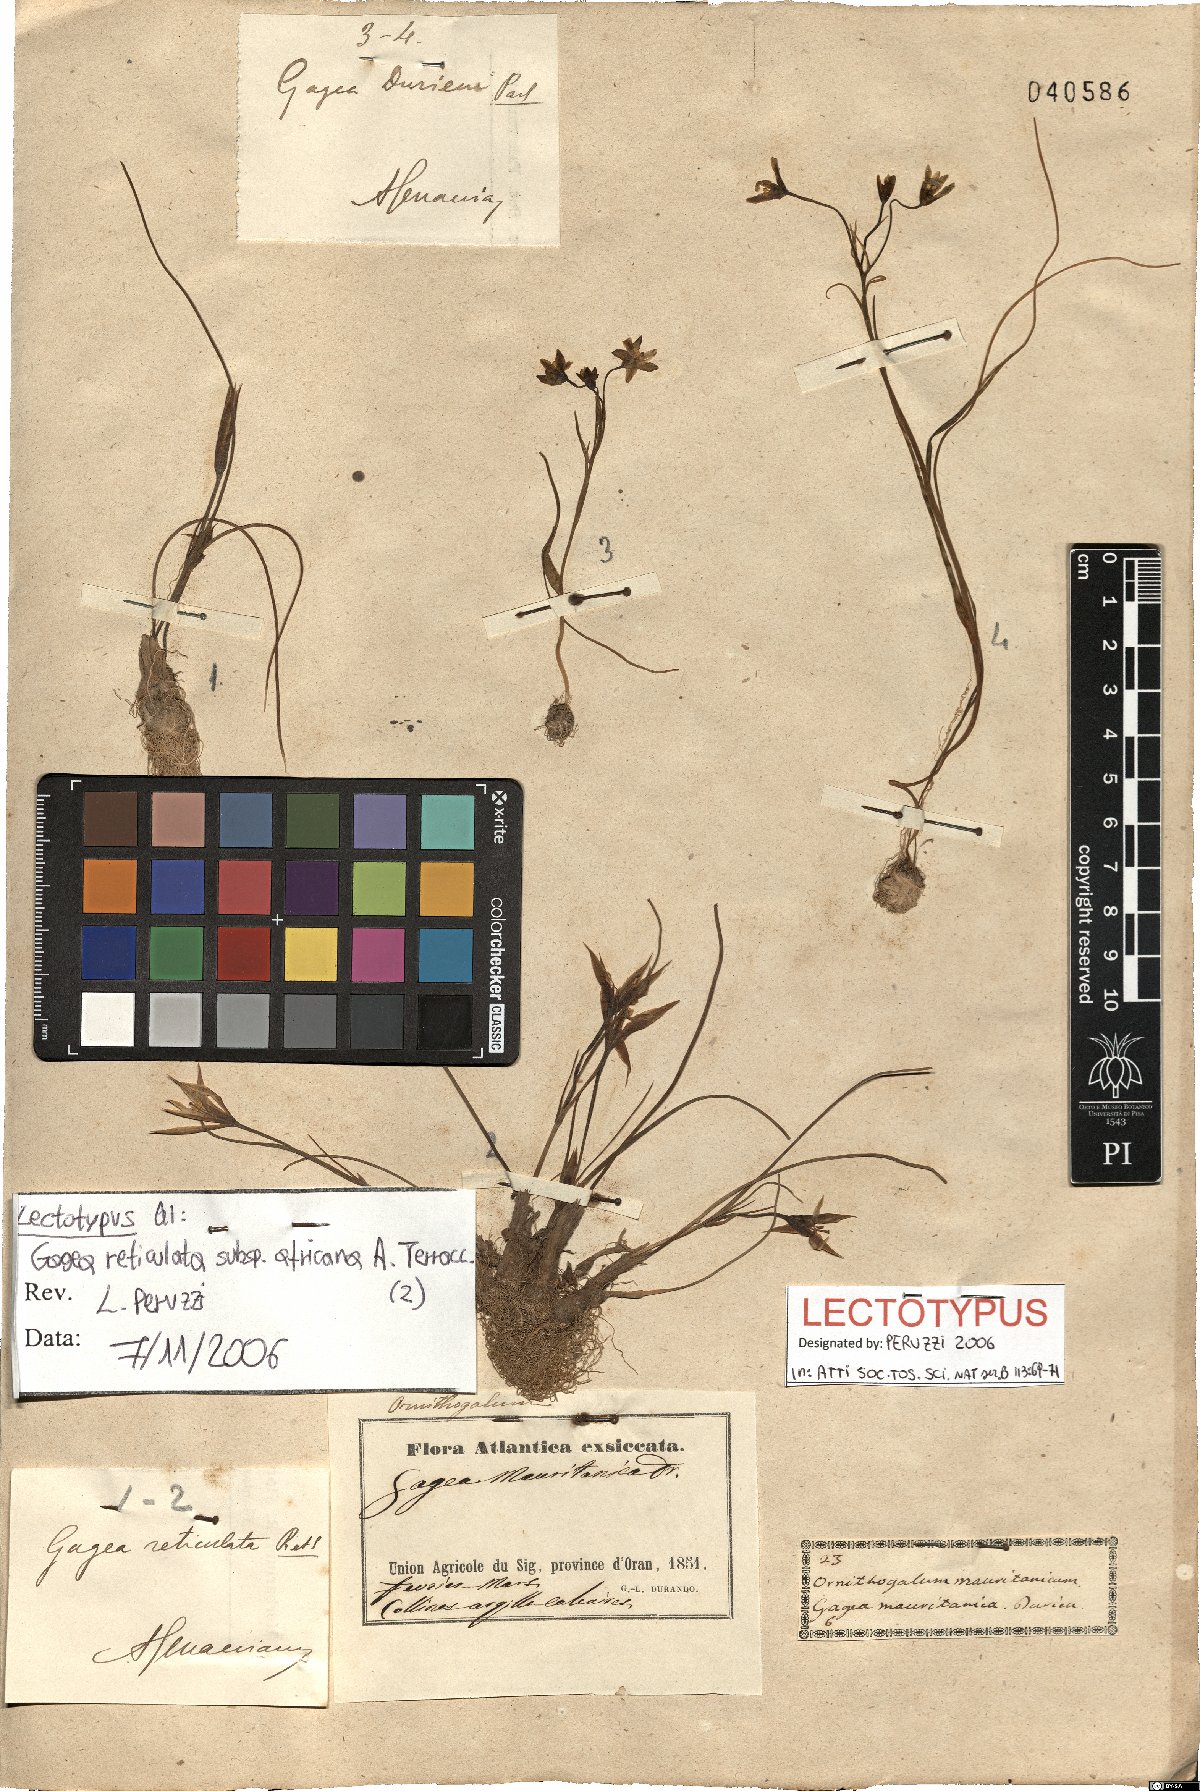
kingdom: Plantae
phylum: Tracheophyta
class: Liliopsida
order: Liliales
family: Liliaceae
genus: Gagea
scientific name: Gagea fibrosa
